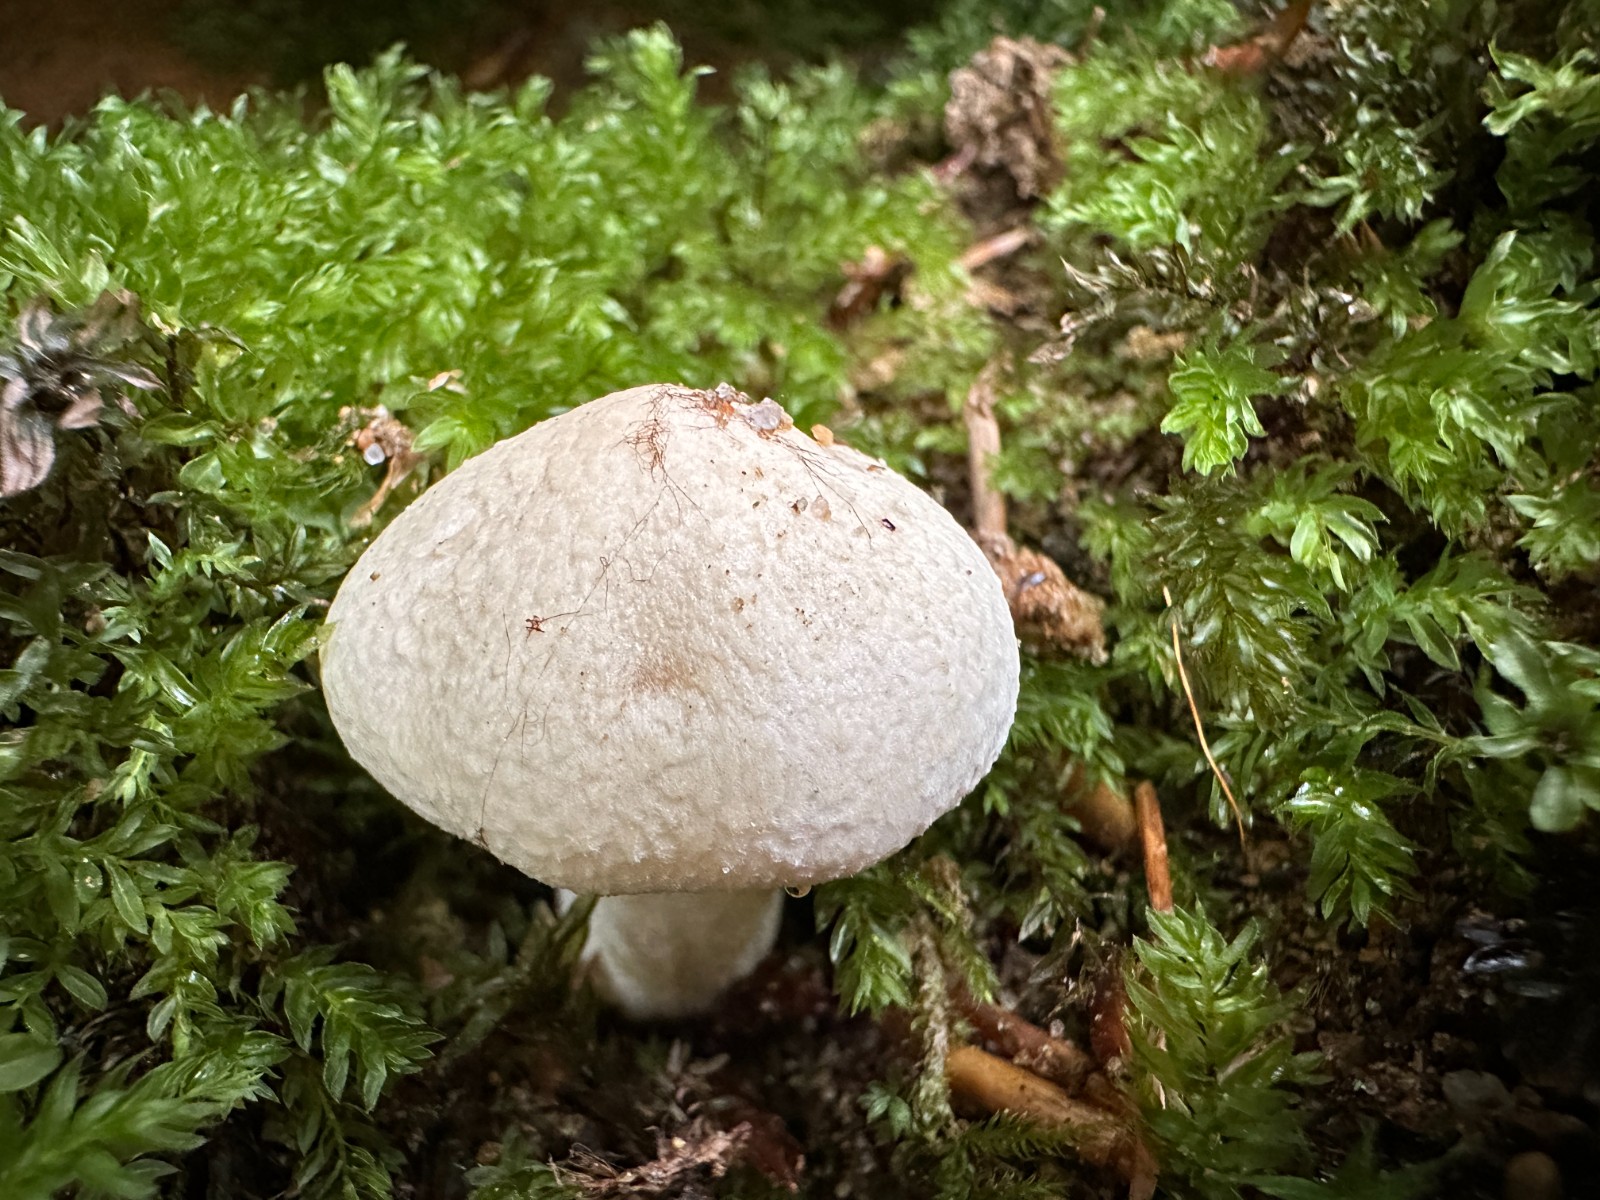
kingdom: Fungi
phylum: Basidiomycota
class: Agaricomycetes
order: Agaricales
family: Hygrophoraceae
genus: Hygrophorus
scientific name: Hygrophorus
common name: sneglehat
